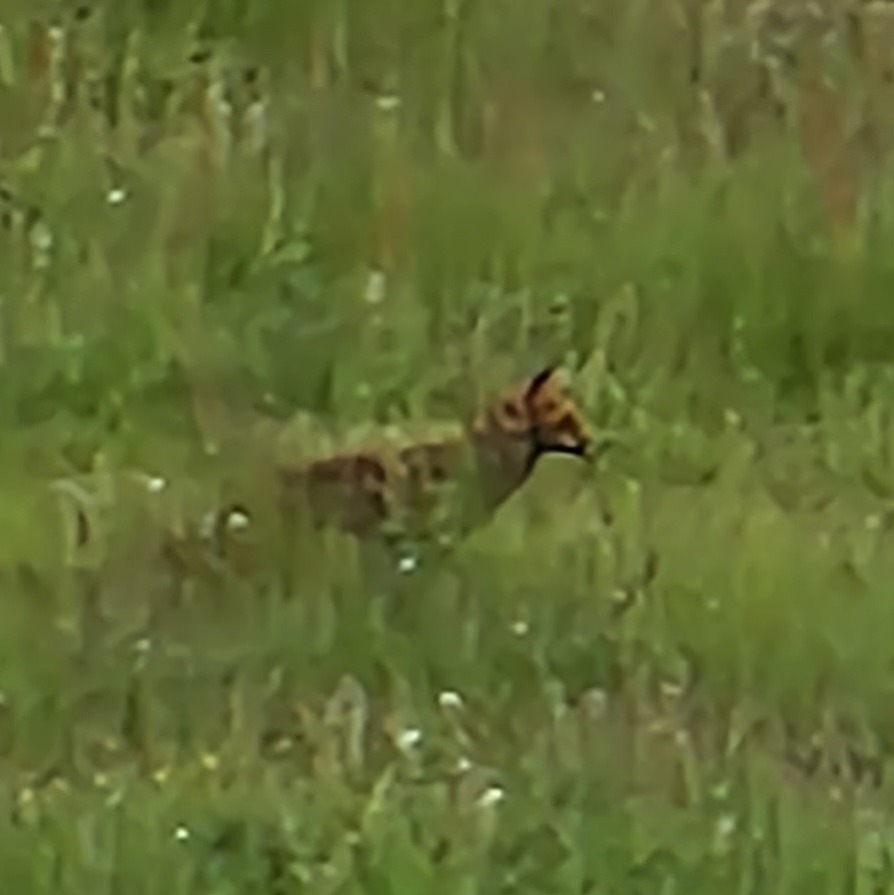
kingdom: Animalia
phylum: Chordata
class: Mammalia
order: Carnivora
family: Canidae
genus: Vulpes
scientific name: Vulpes vulpes
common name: Ræv
